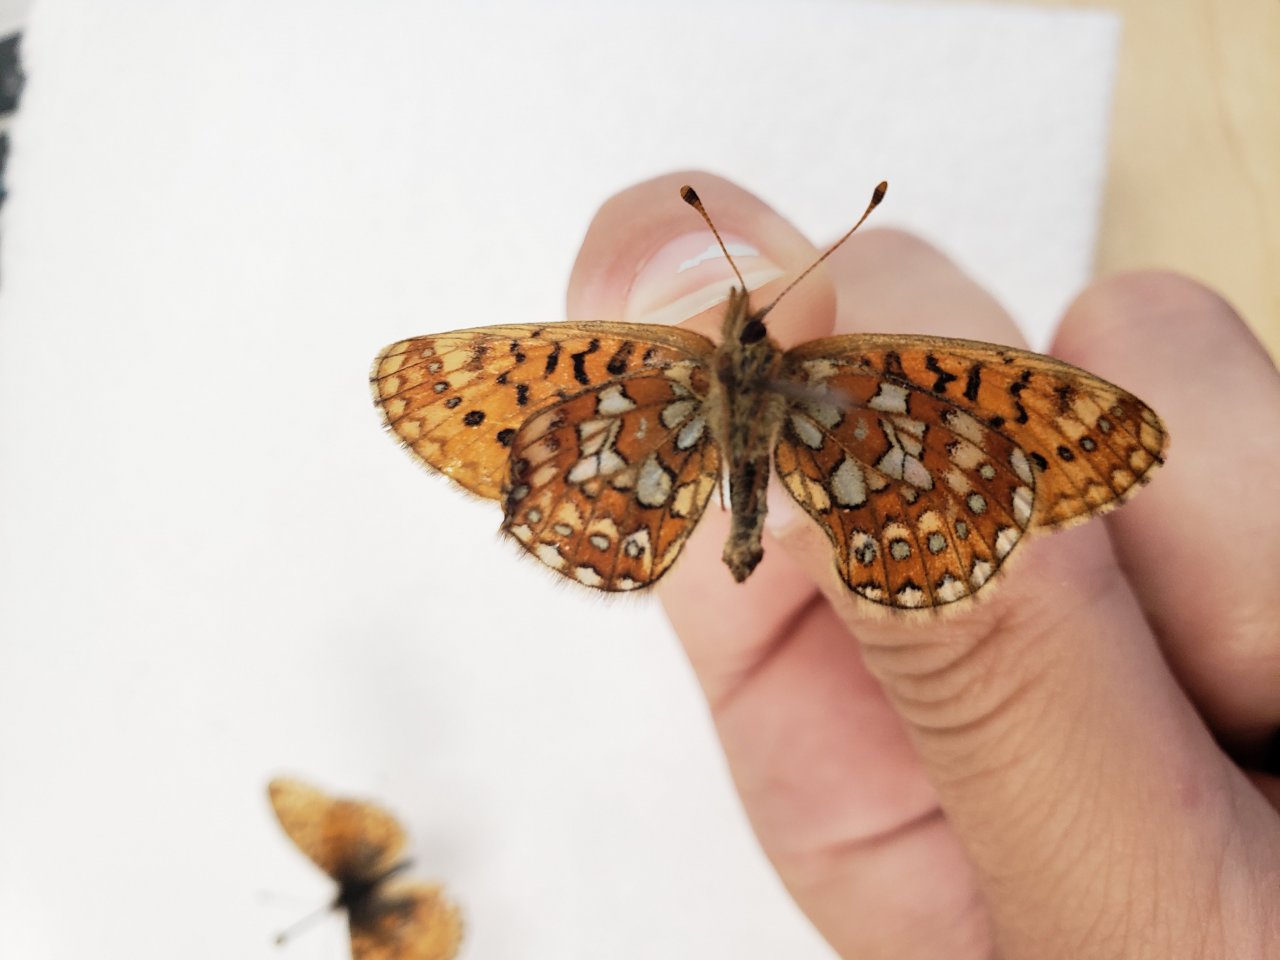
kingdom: Animalia
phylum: Arthropoda
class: Insecta
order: Lepidoptera
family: Nymphalidae
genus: Boloria
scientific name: Boloria eunomia
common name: Bog Fritillary
